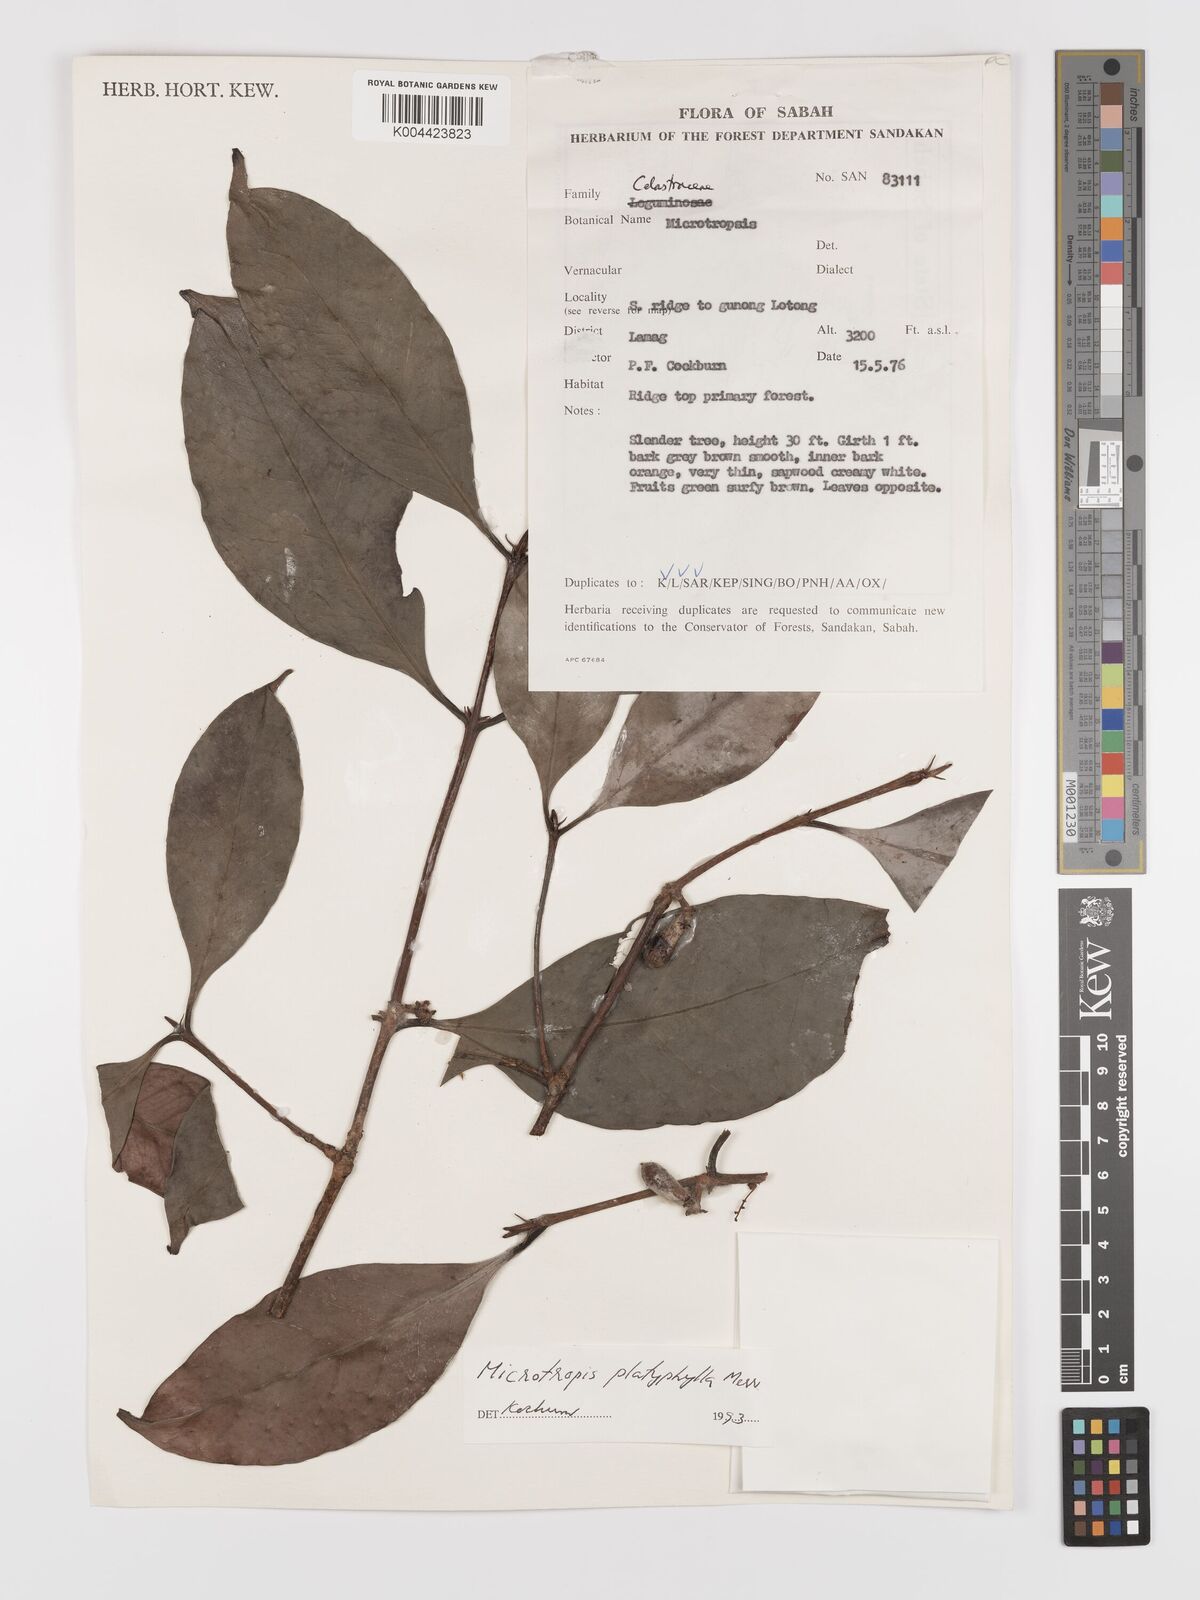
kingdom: Plantae
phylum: Tracheophyta
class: Magnoliopsida
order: Celastrales
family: Celastraceae
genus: Microtropis
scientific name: Microtropis platyphylla
